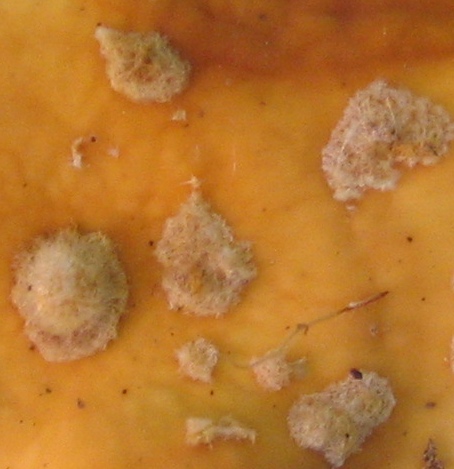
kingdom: Fungi
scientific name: Fungi
